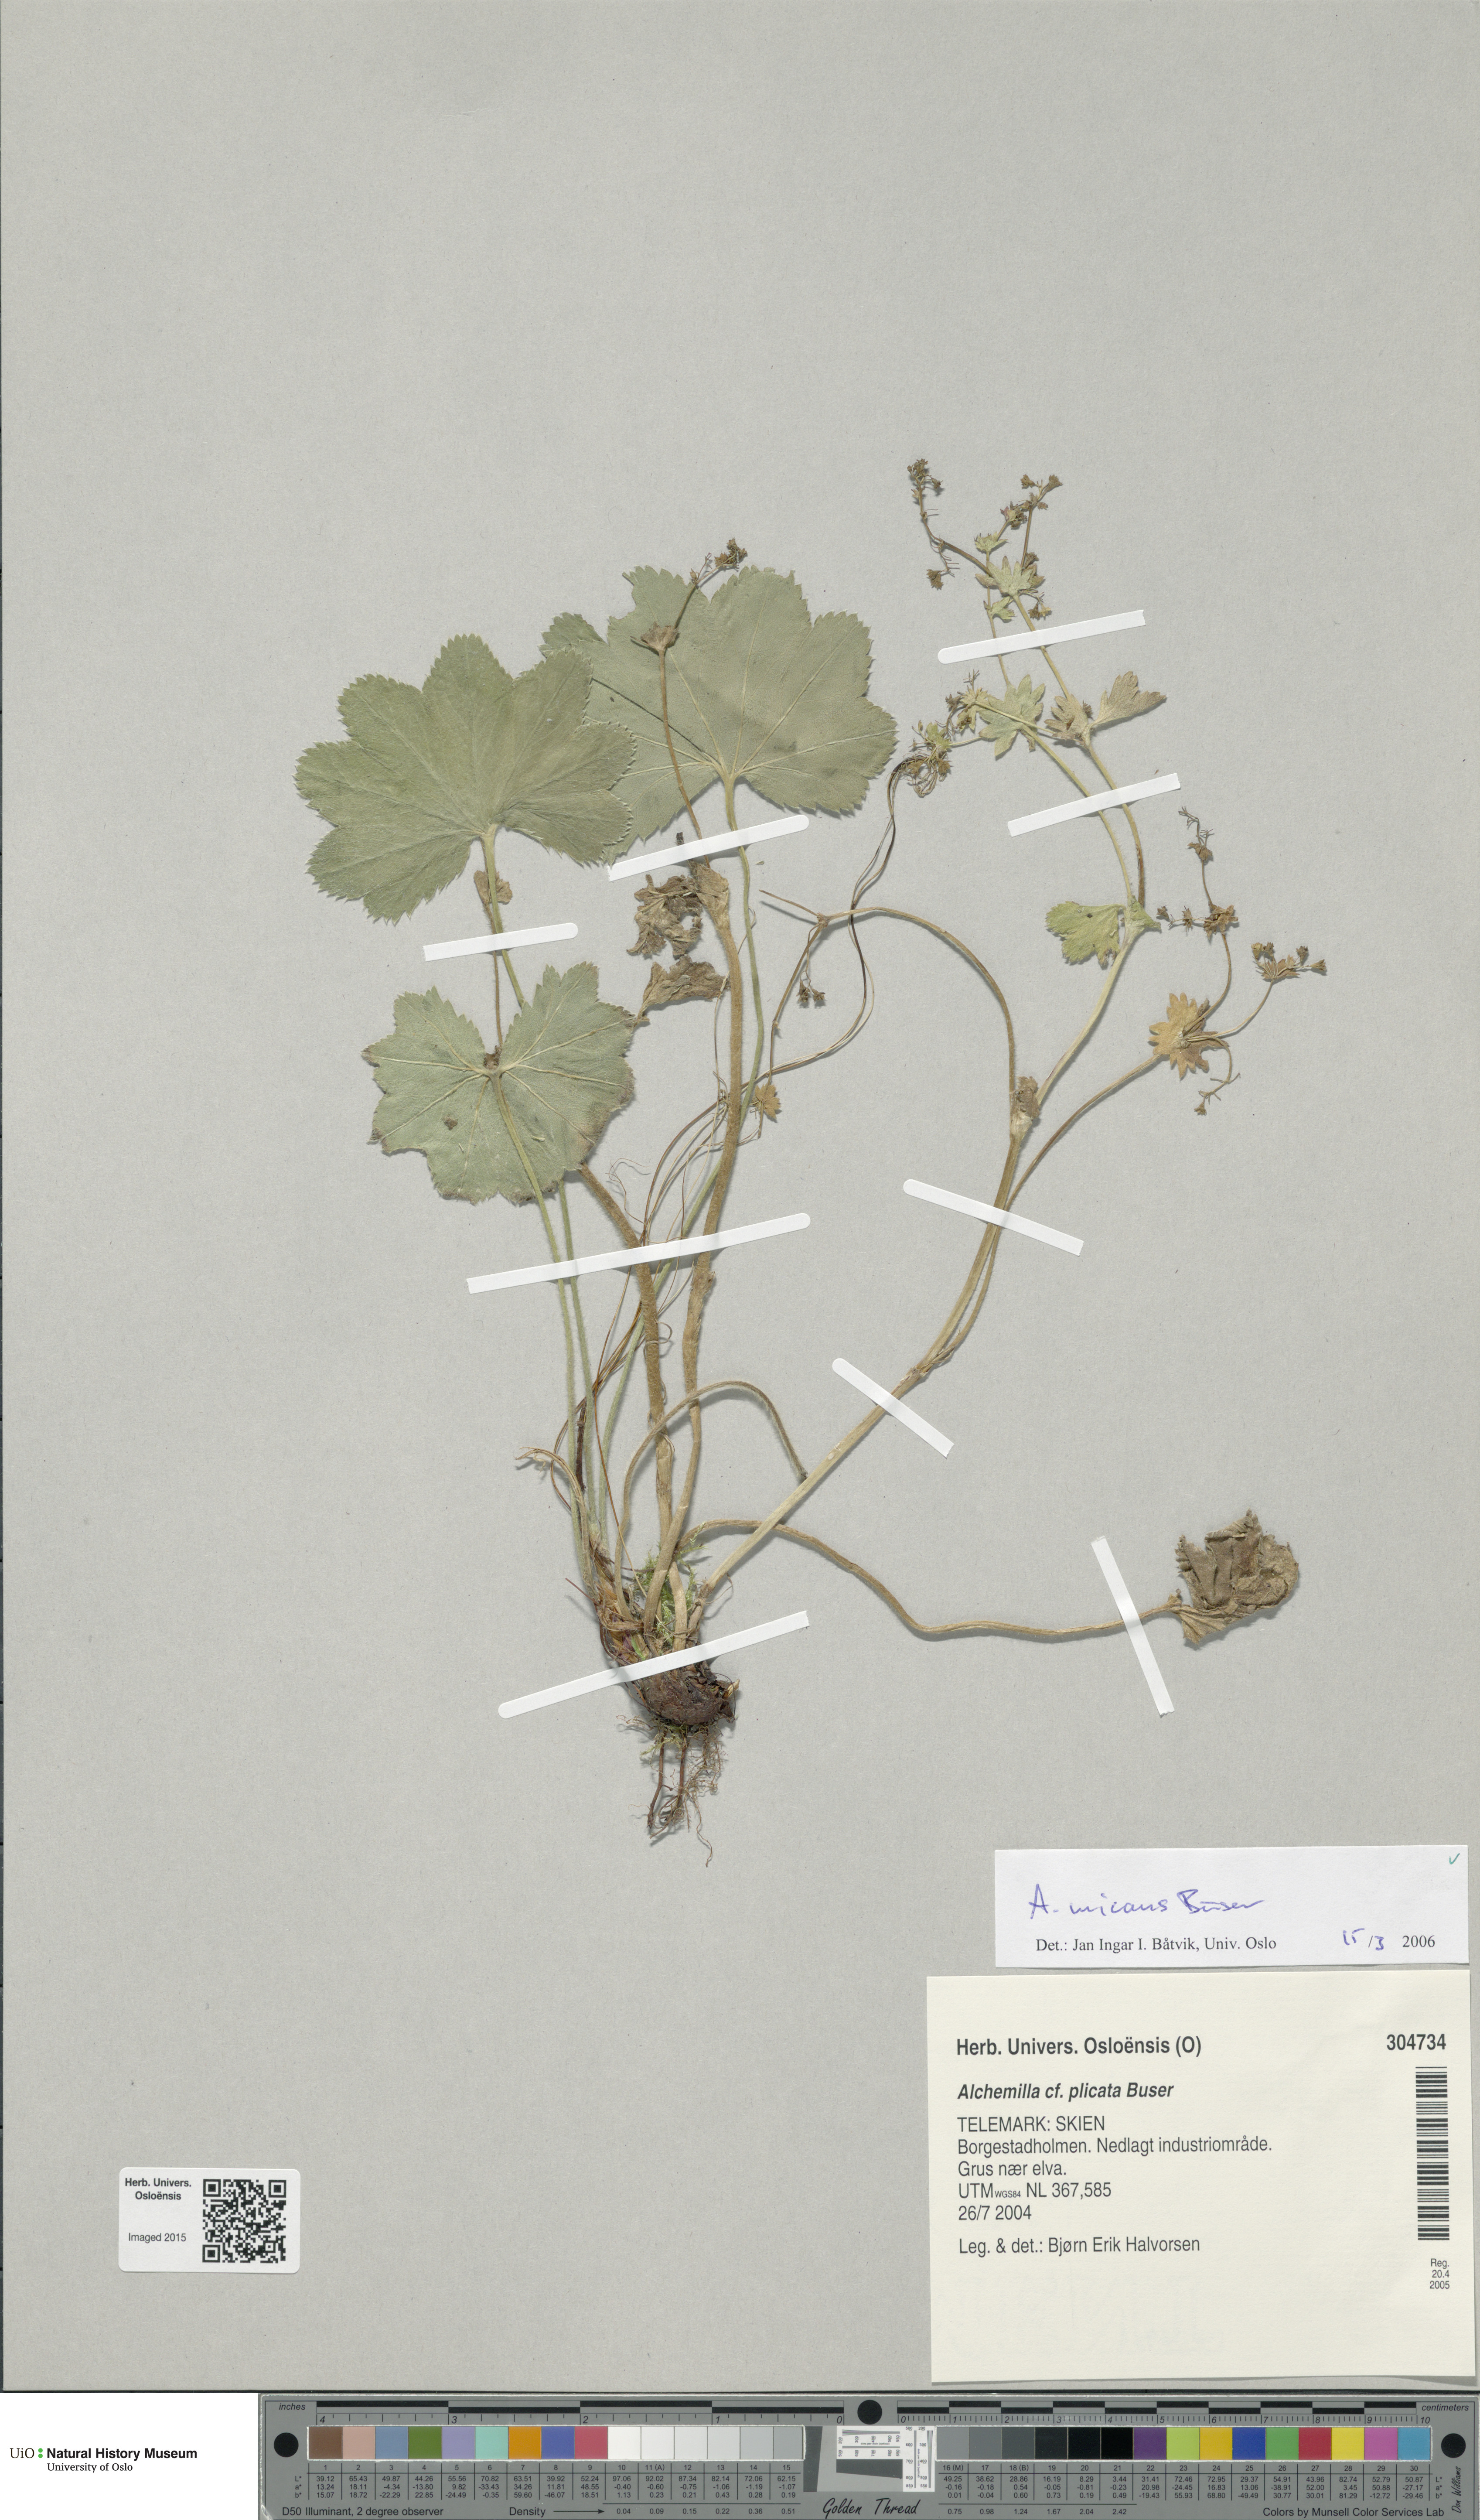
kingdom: Plantae
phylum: Tracheophyta
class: Magnoliopsida
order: Rosales
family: Rosaceae
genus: Alchemilla
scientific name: Alchemilla micans
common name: Gleaming lady's mantle
